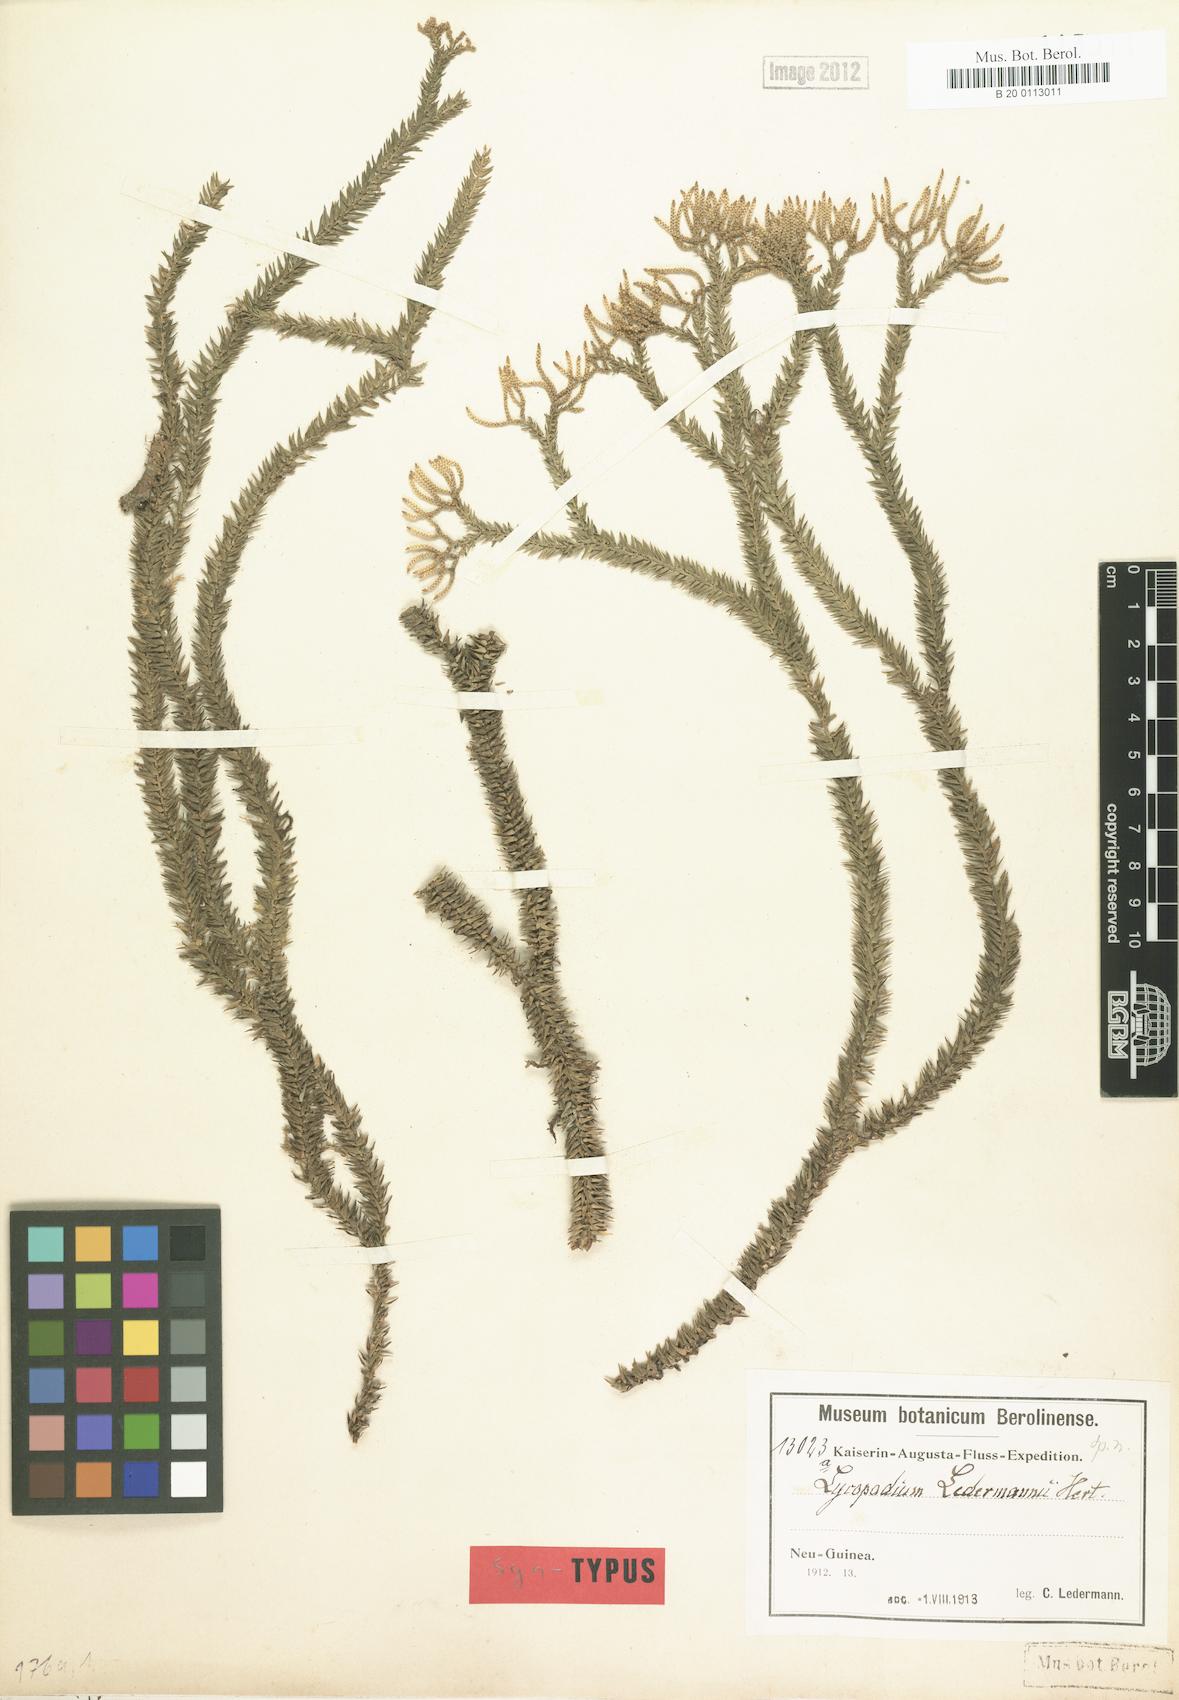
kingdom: Plantae
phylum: Tracheophyta
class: Lycopodiopsida
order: Lycopodiales
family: Lycopodiaceae
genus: Phlegmariurus
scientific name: Phlegmariurus ledermannii
